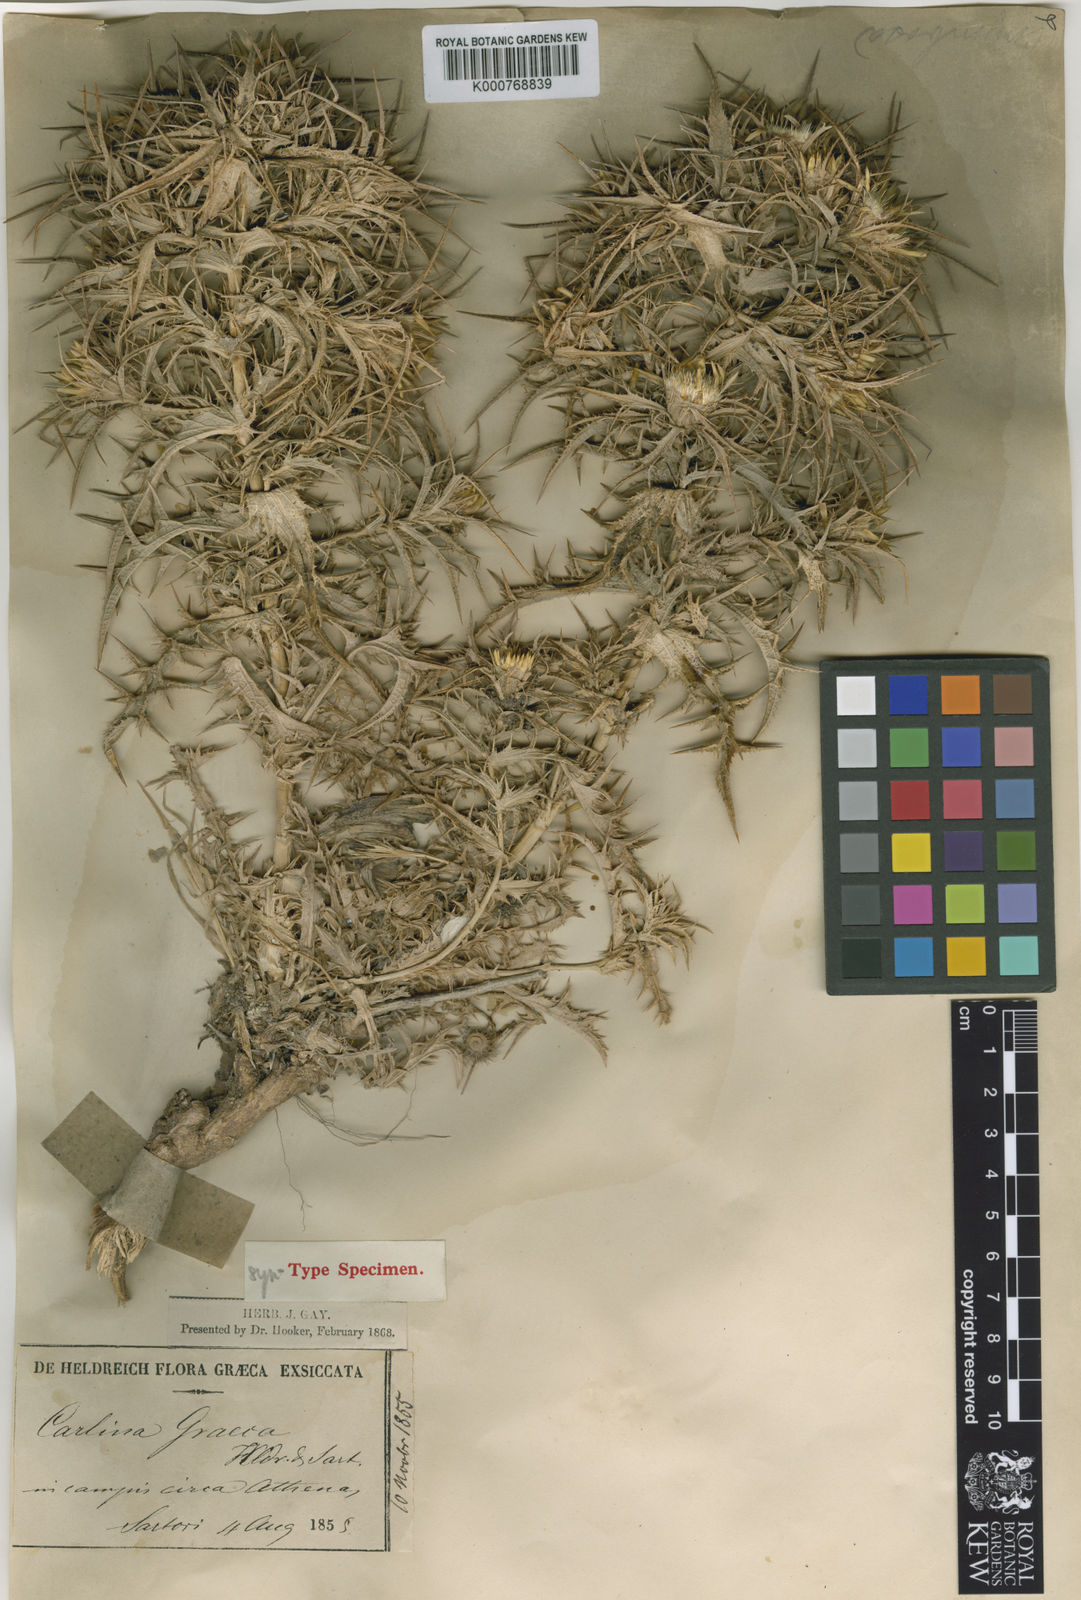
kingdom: Plantae
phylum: Tracheophyta
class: Magnoliopsida
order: Asterales
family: Asteraceae
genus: Carlina
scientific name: Carlina graeca
